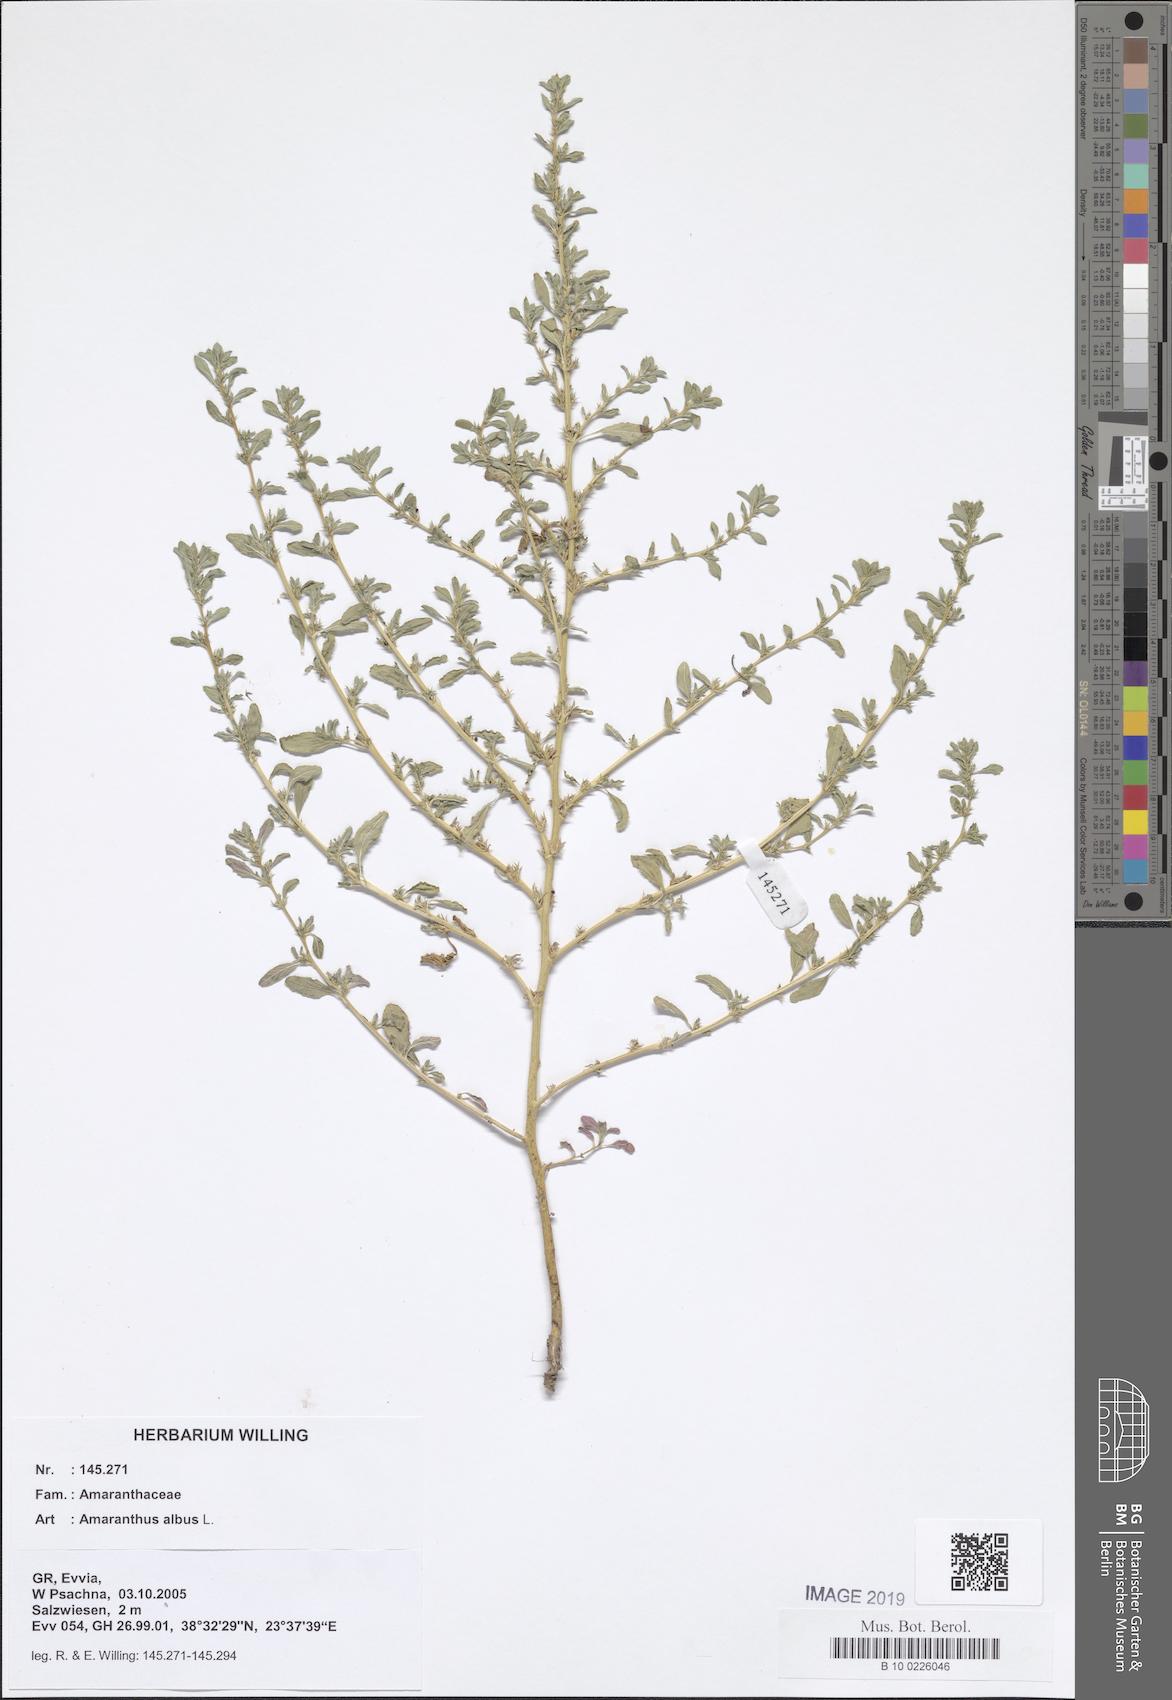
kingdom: Plantae
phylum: Tracheophyta
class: Magnoliopsida
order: Caryophyllales
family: Amaranthaceae
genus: Amaranthus
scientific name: Amaranthus albus
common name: White pigweed
